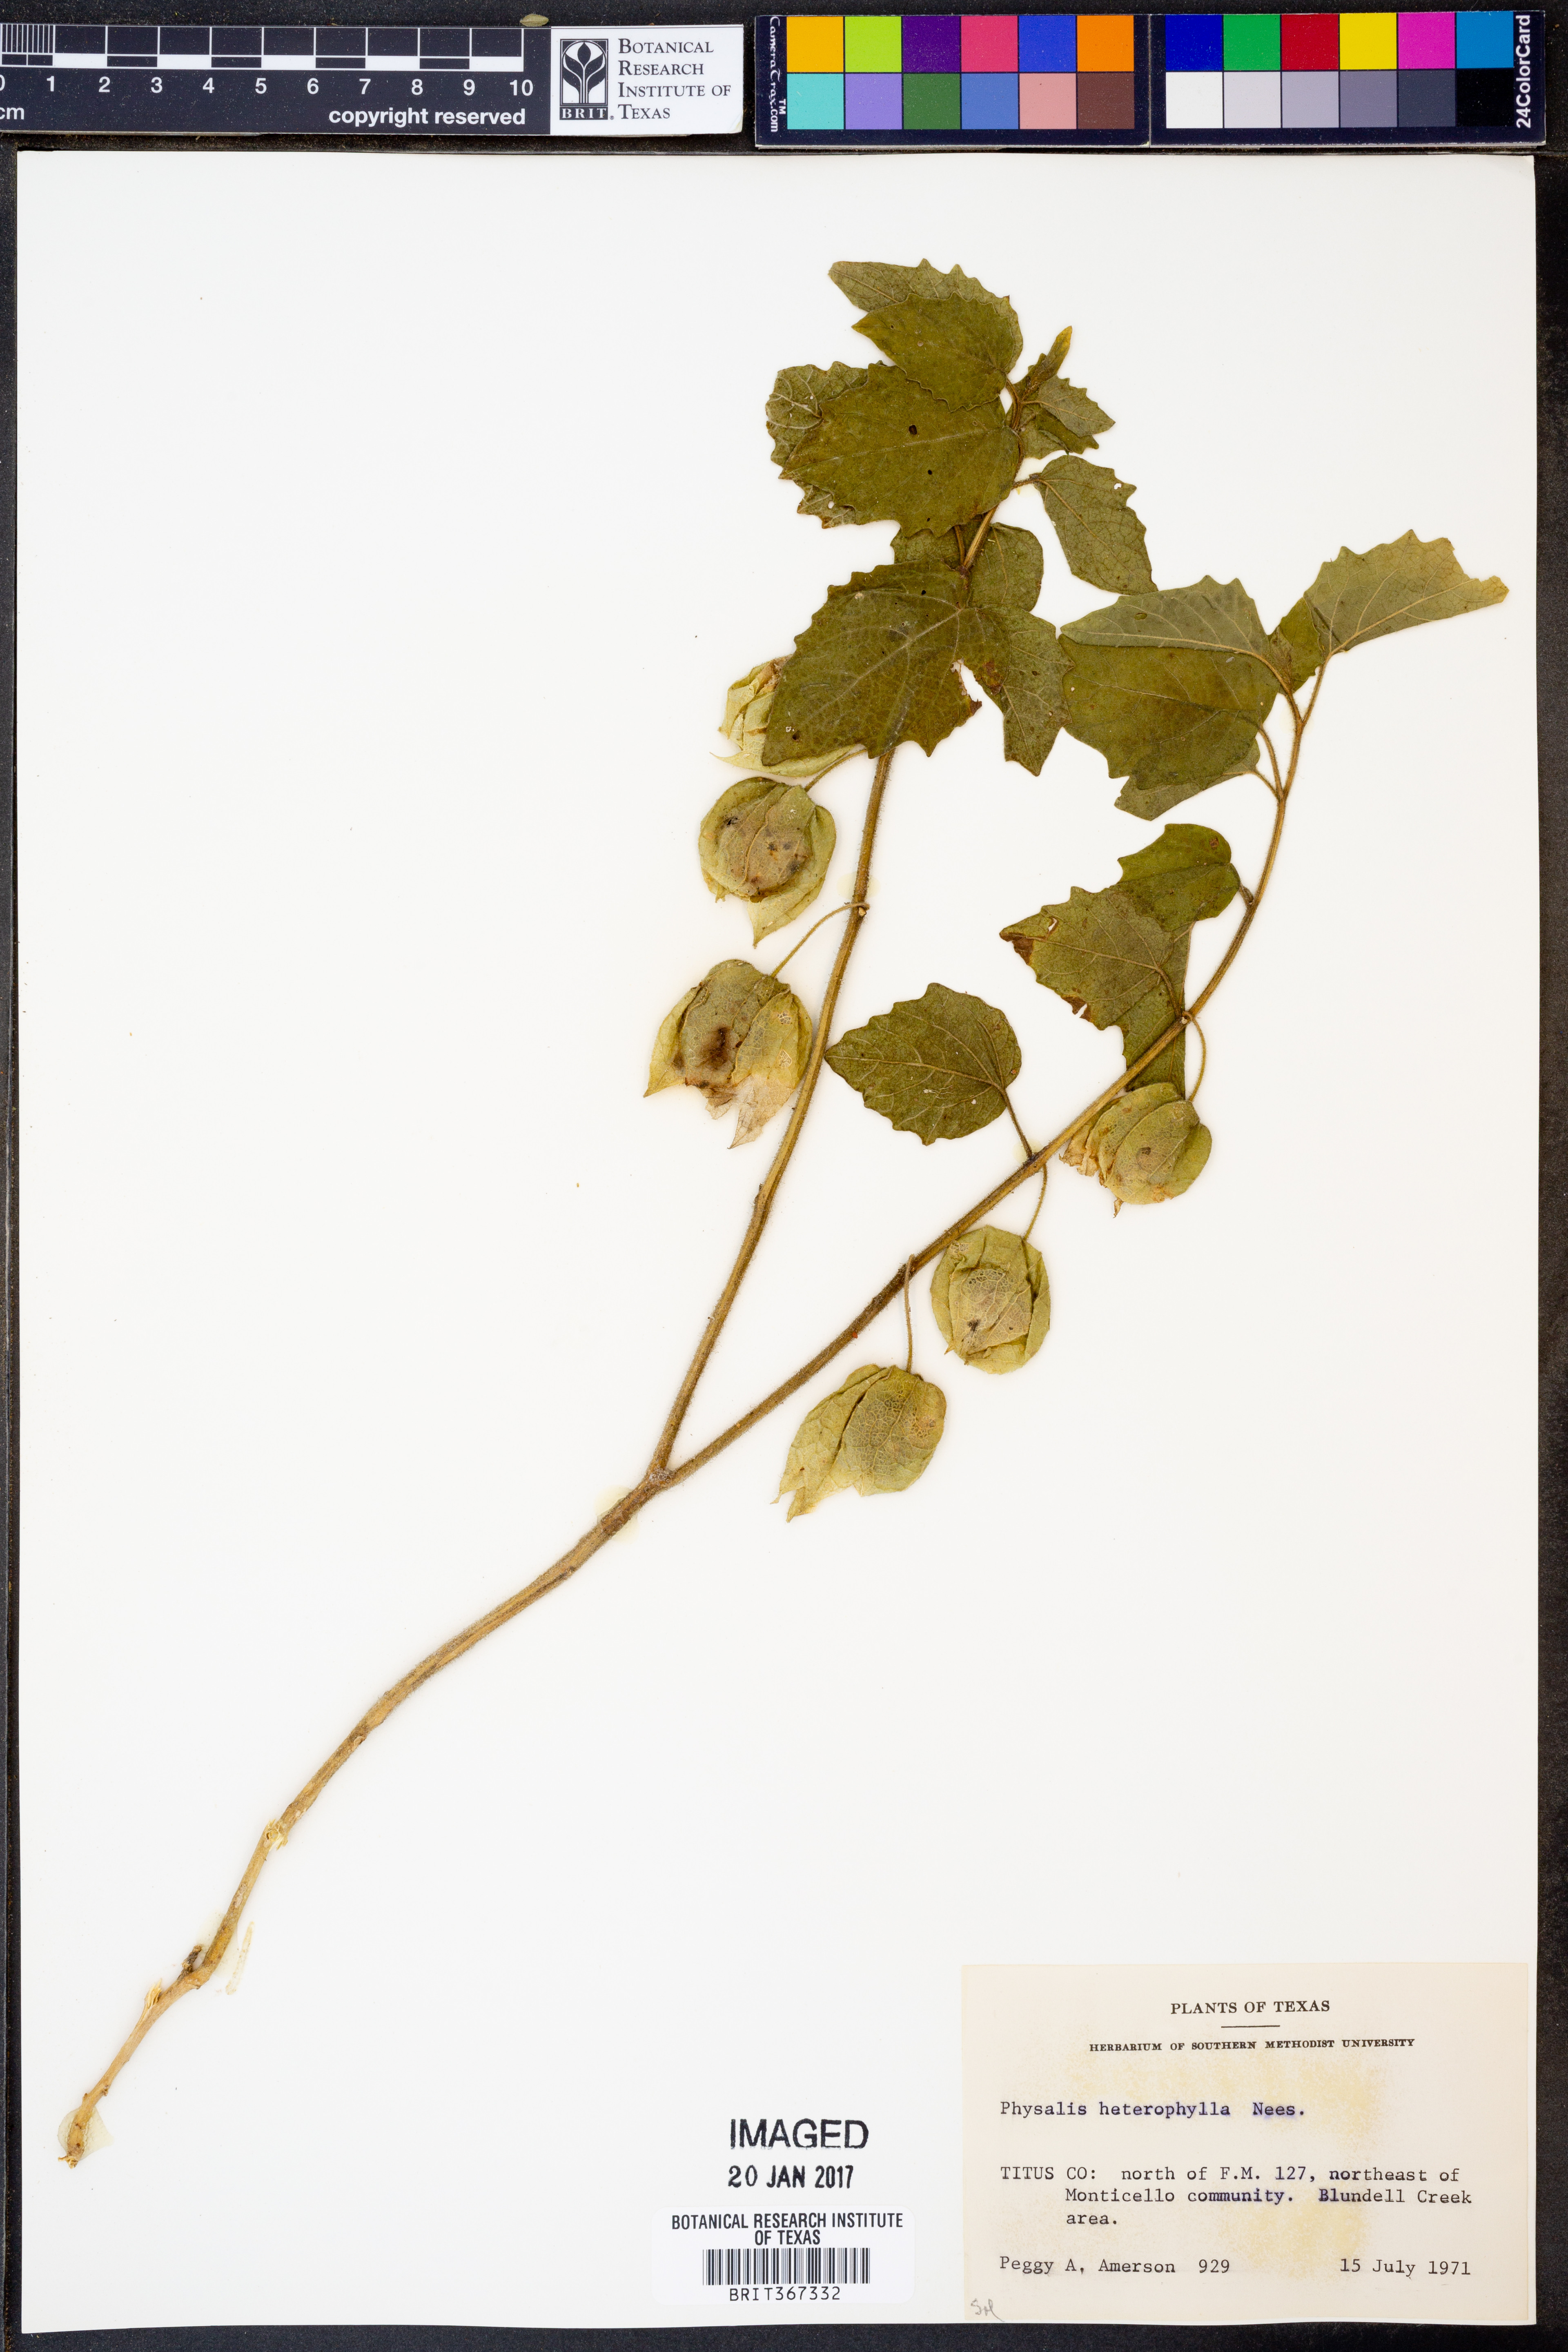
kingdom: Plantae
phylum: Tracheophyta
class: Magnoliopsida
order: Solanales
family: Solanaceae
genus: Physalis
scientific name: Physalis heterophylla
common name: Clammy ground-cherry
